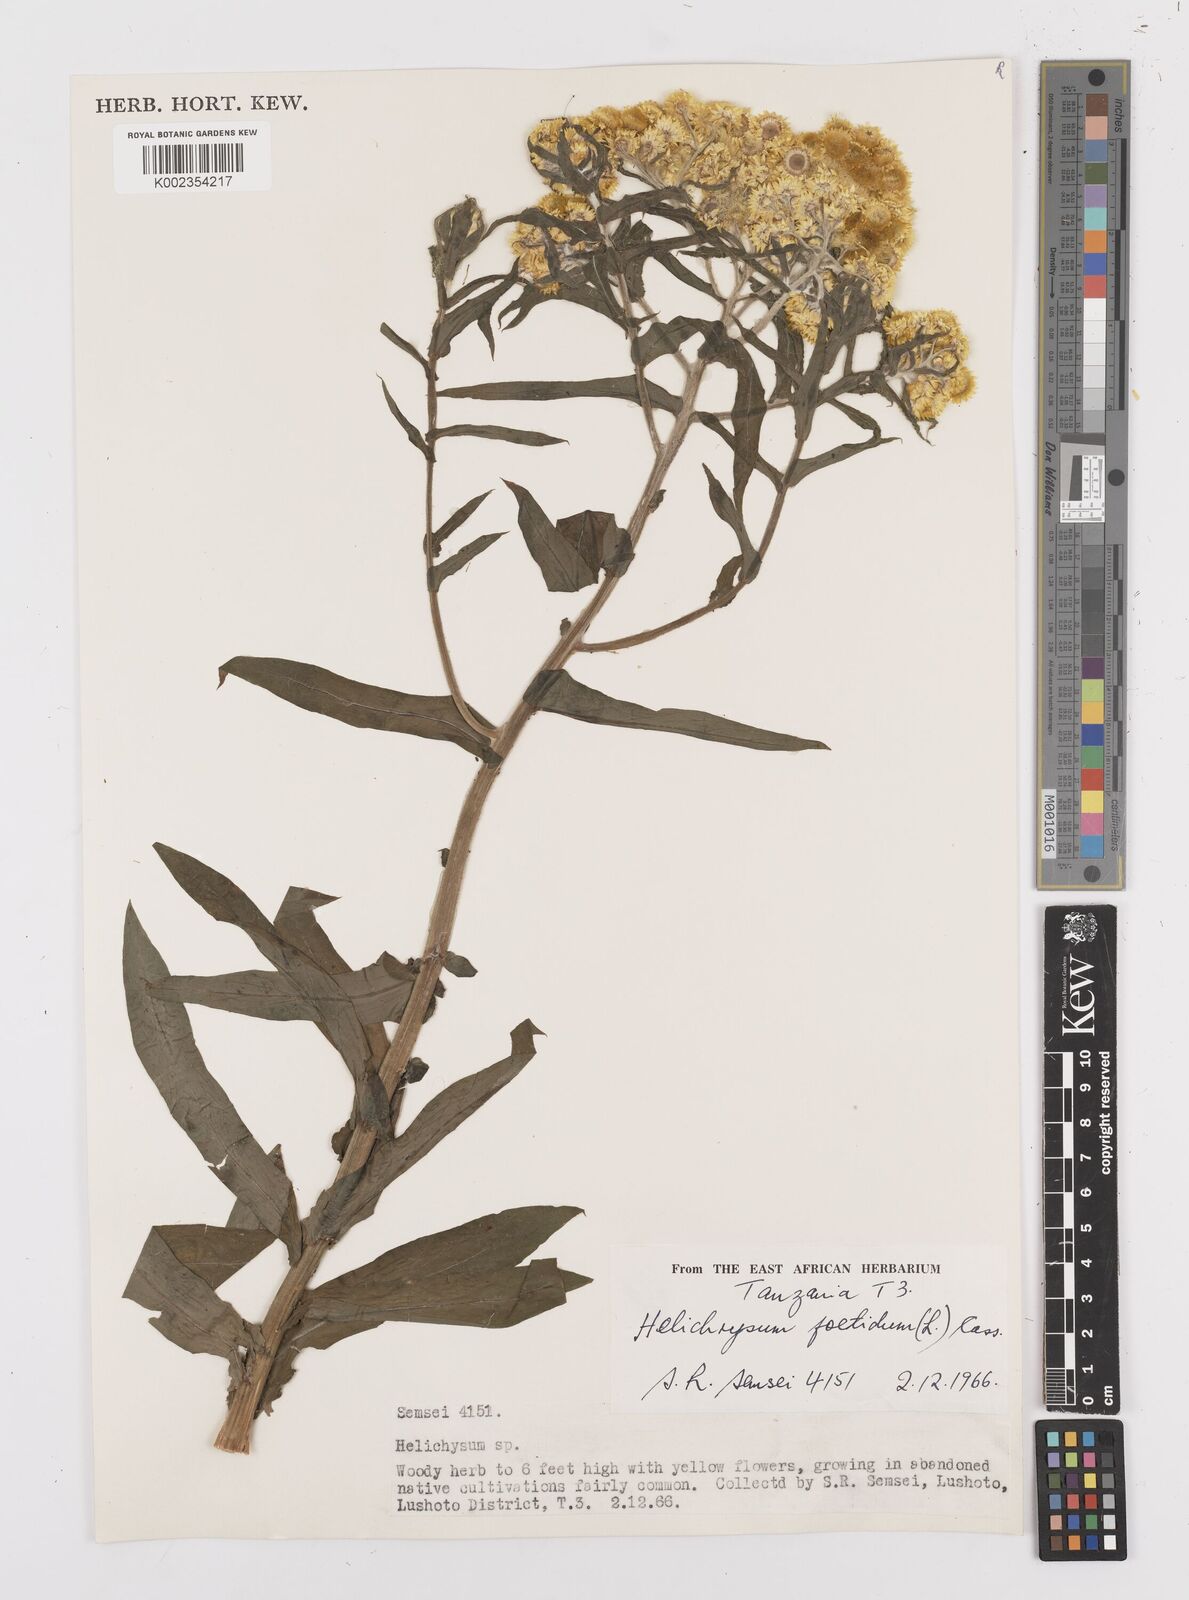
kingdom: Plantae
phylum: Tracheophyta
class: Magnoliopsida
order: Asterales
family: Asteraceae
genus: Helichrysum
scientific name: Helichrysum
